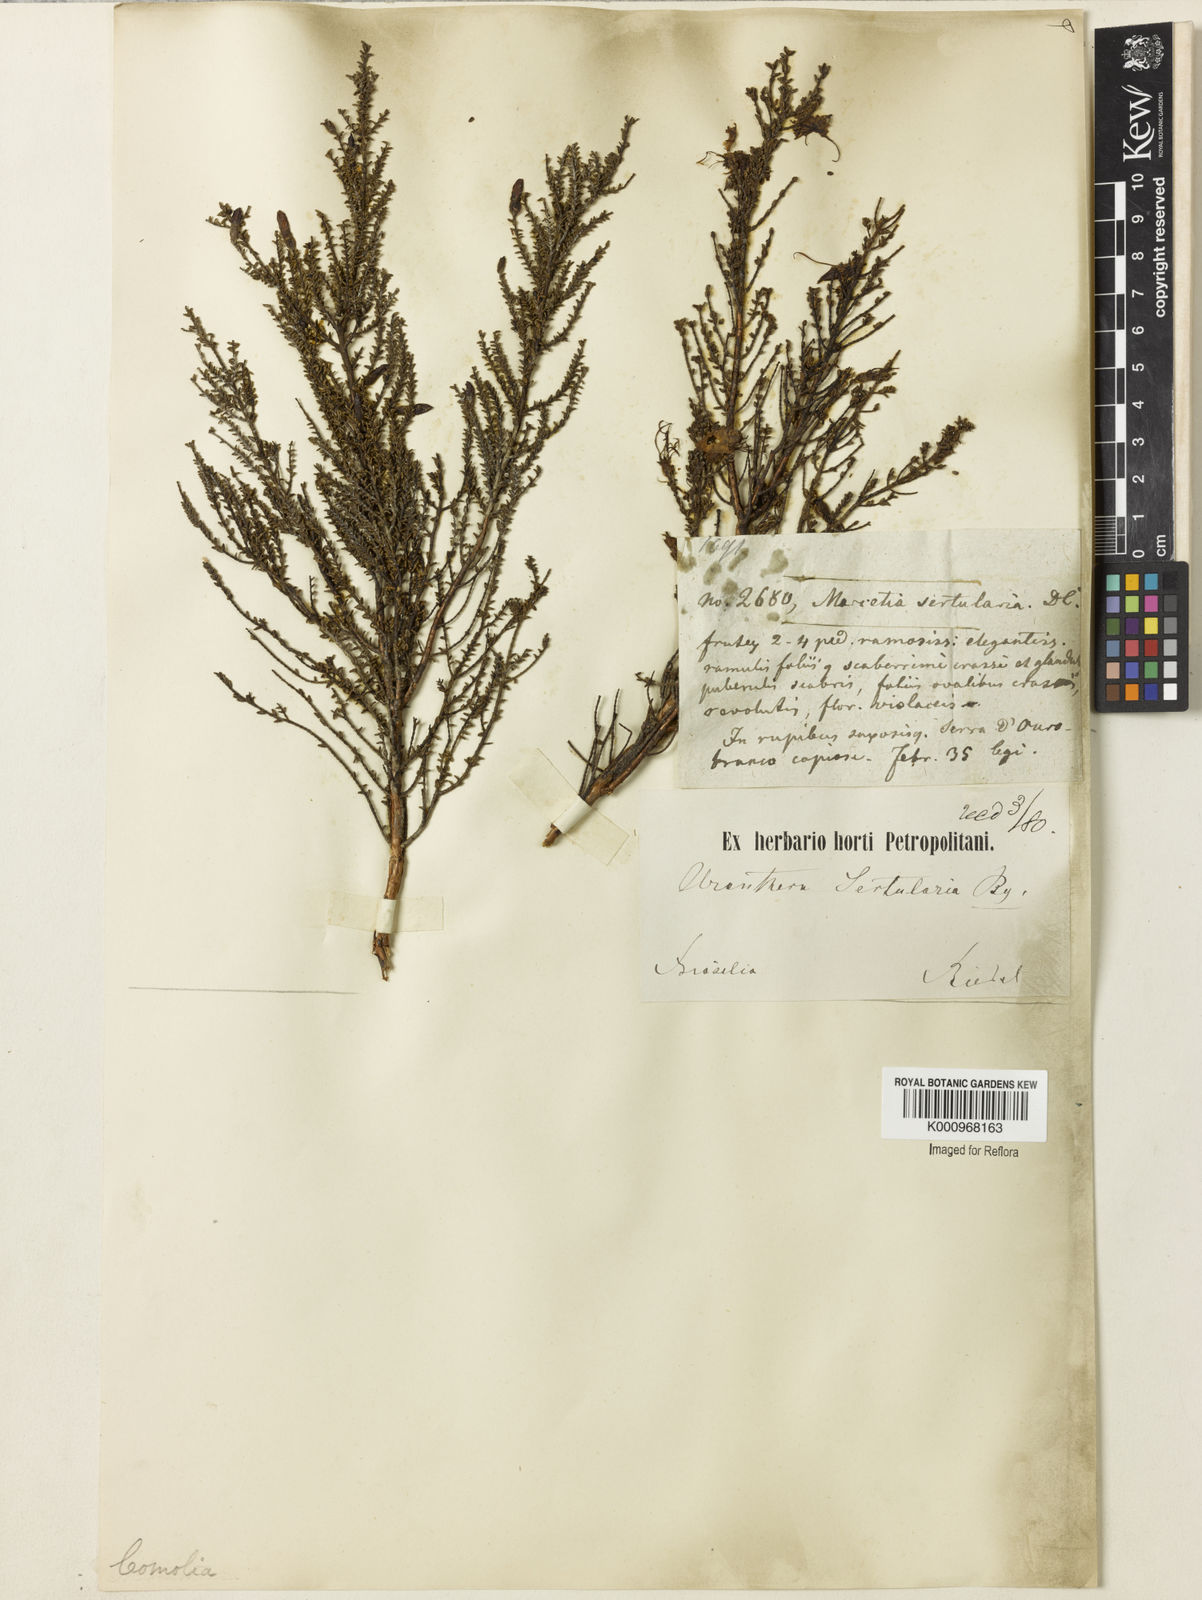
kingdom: Plantae
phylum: Tracheophyta
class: Magnoliopsida
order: Myrtales
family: Melastomataceae
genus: Fritzschia
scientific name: Fritzschia sertularia
